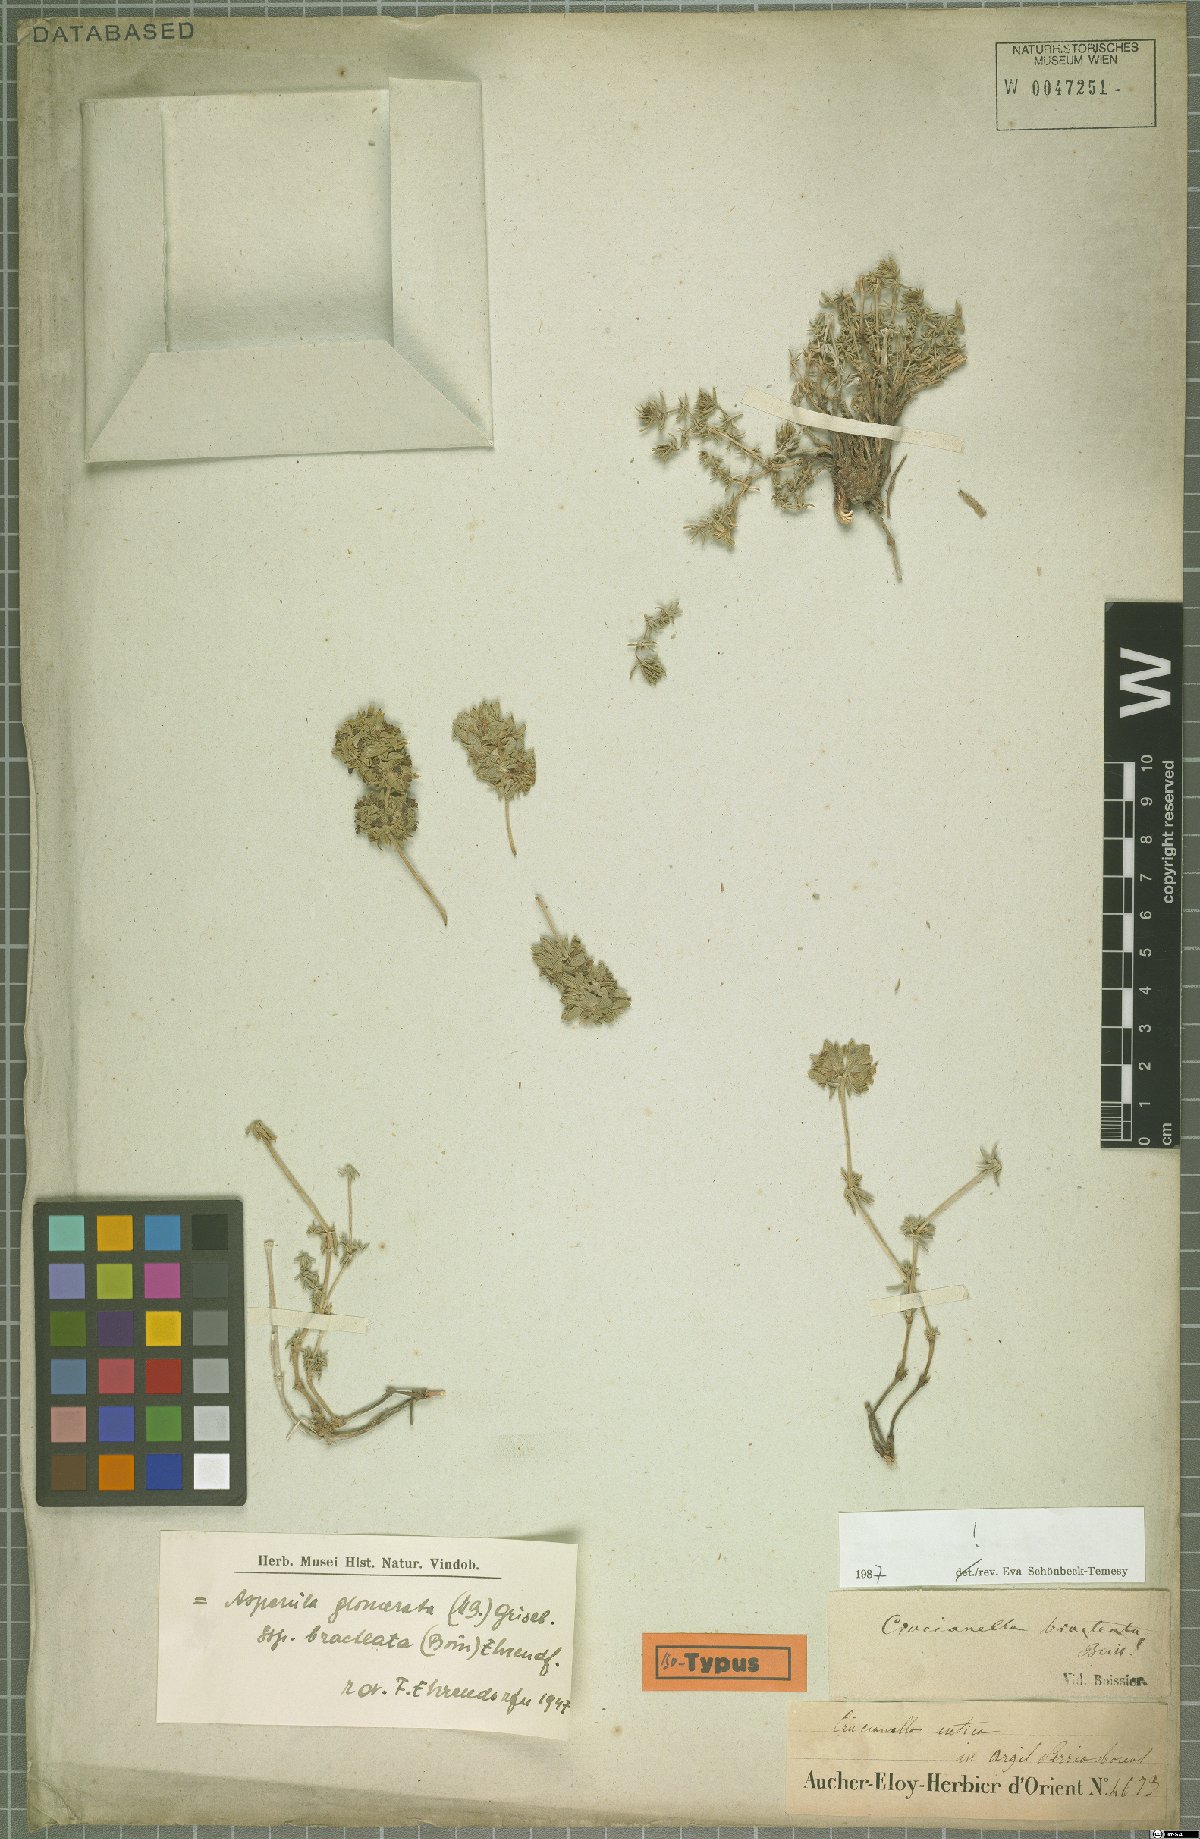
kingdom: Plantae
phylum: Tracheophyta
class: Magnoliopsida
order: Gentianales
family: Rubiaceae
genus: Asperula
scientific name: Asperula glomerata
